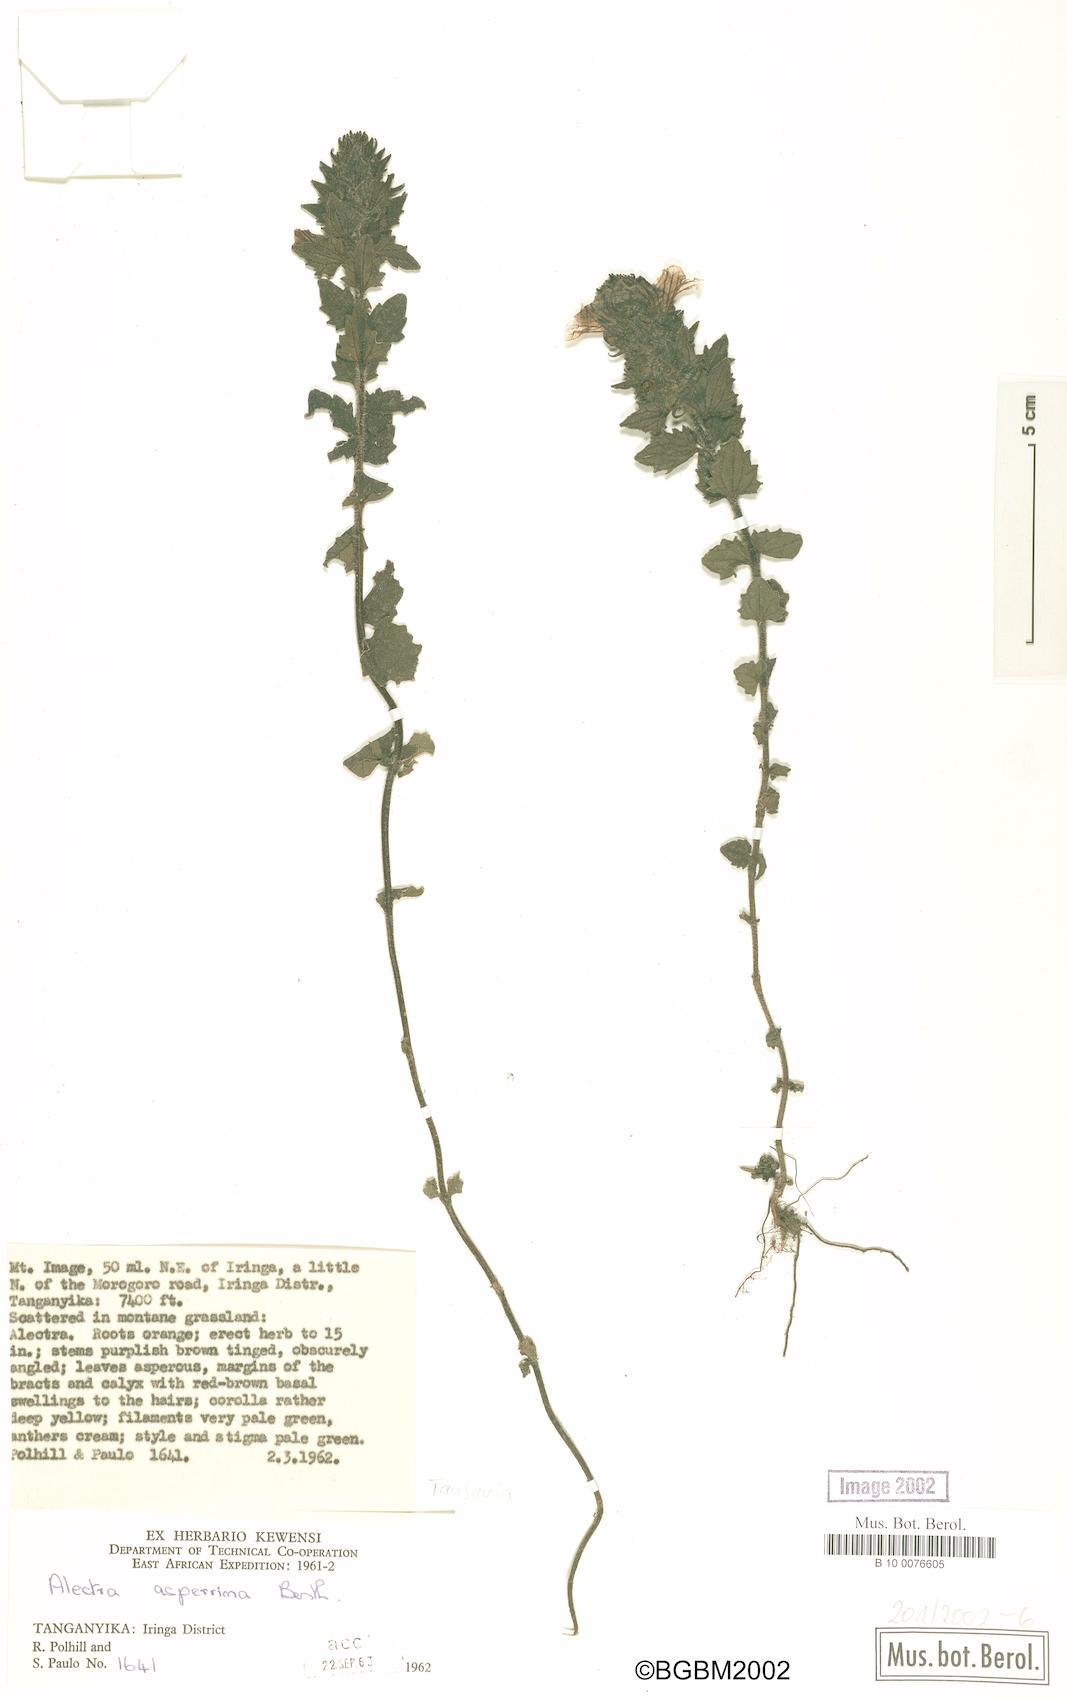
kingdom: Plantae
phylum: Tracheophyta
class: Magnoliopsida
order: Lamiales
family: Orobanchaceae
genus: Alectra
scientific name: Alectra asperrima
